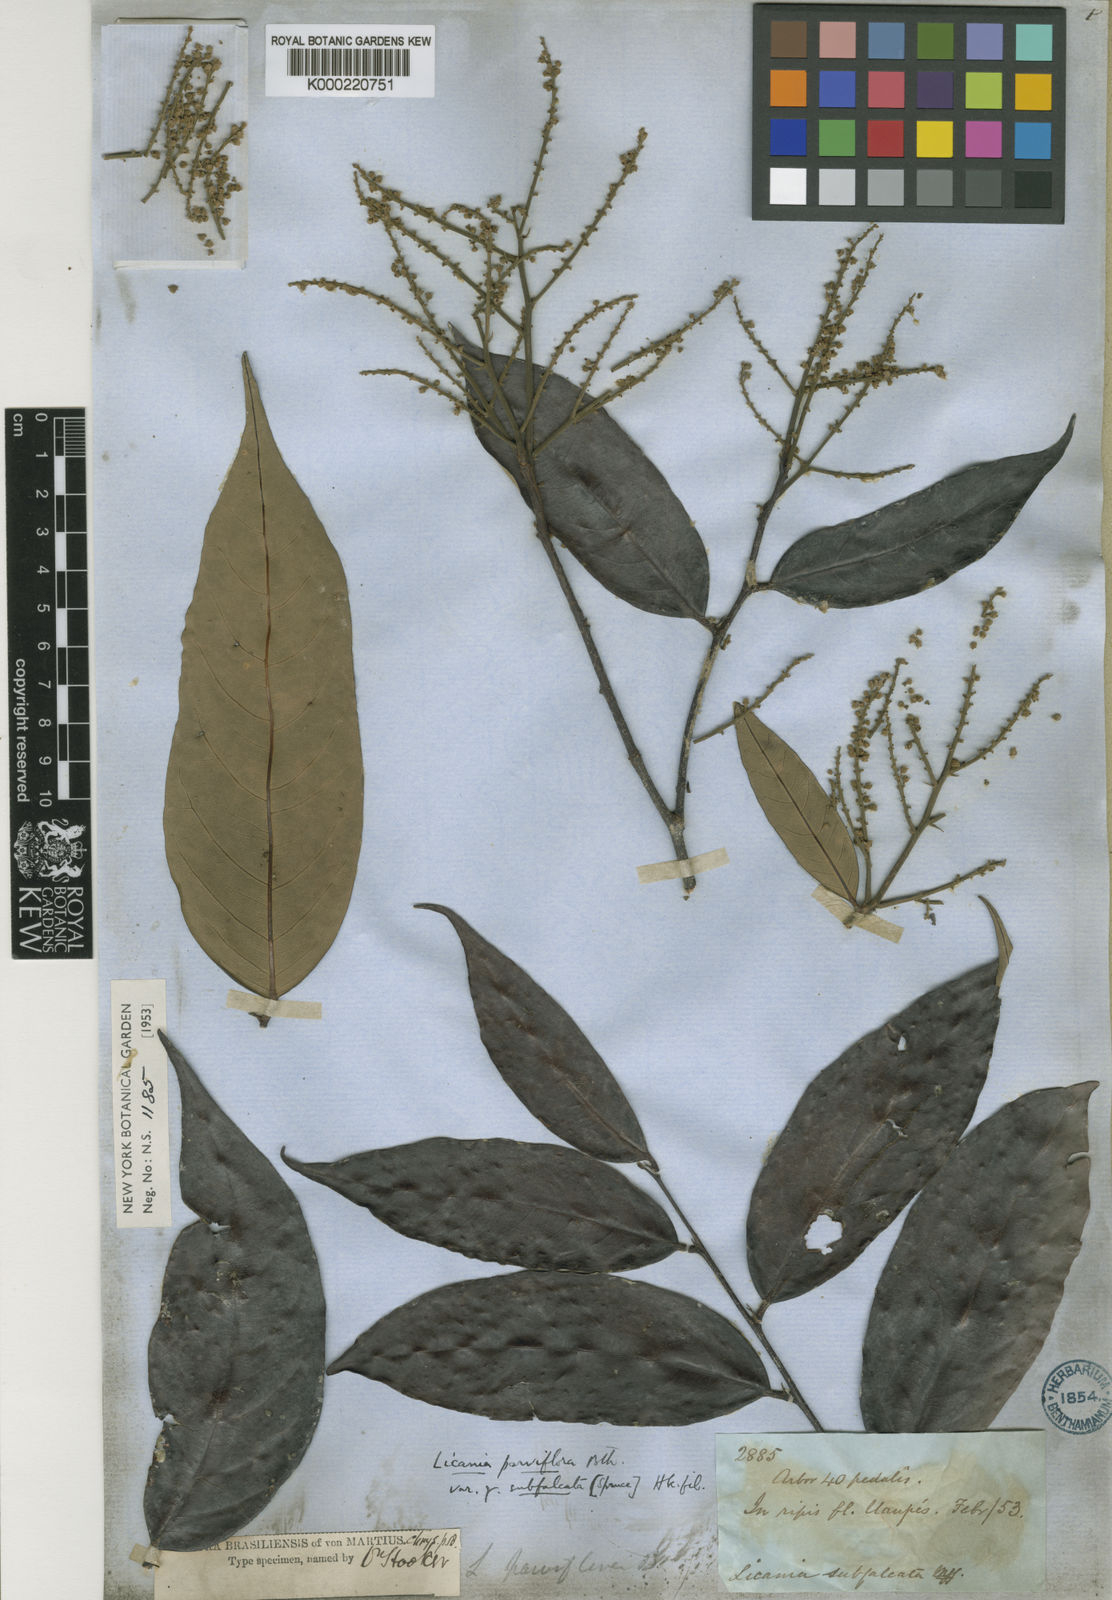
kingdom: Plantae
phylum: Tracheophyta
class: Magnoliopsida
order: Malpighiales
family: Chrysobalanaceae
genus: Leptobalanus
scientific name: Leptobalanus parviflorus
